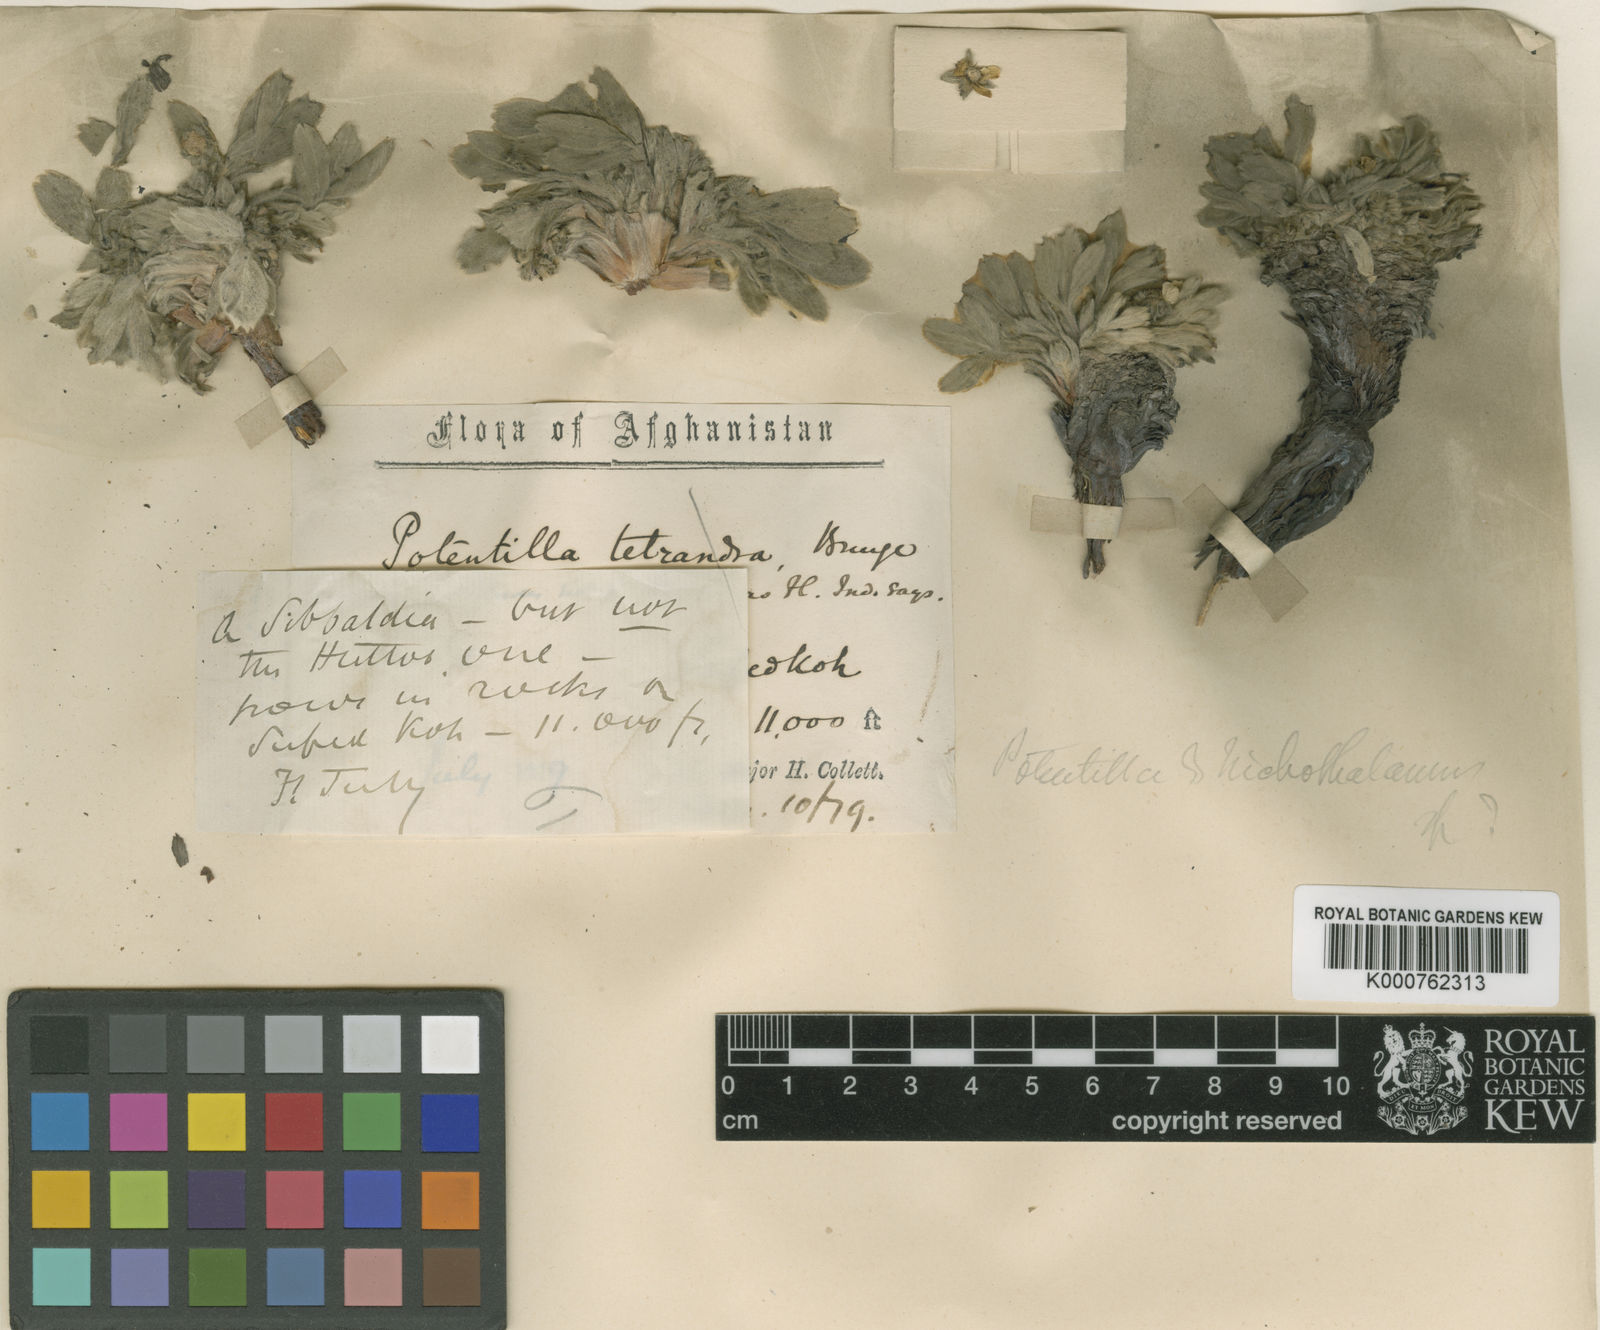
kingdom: Plantae
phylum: Tracheophyta
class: Magnoliopsida
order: Rosales
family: Rosaceae
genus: Potentilla
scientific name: Potentilla collettiana
